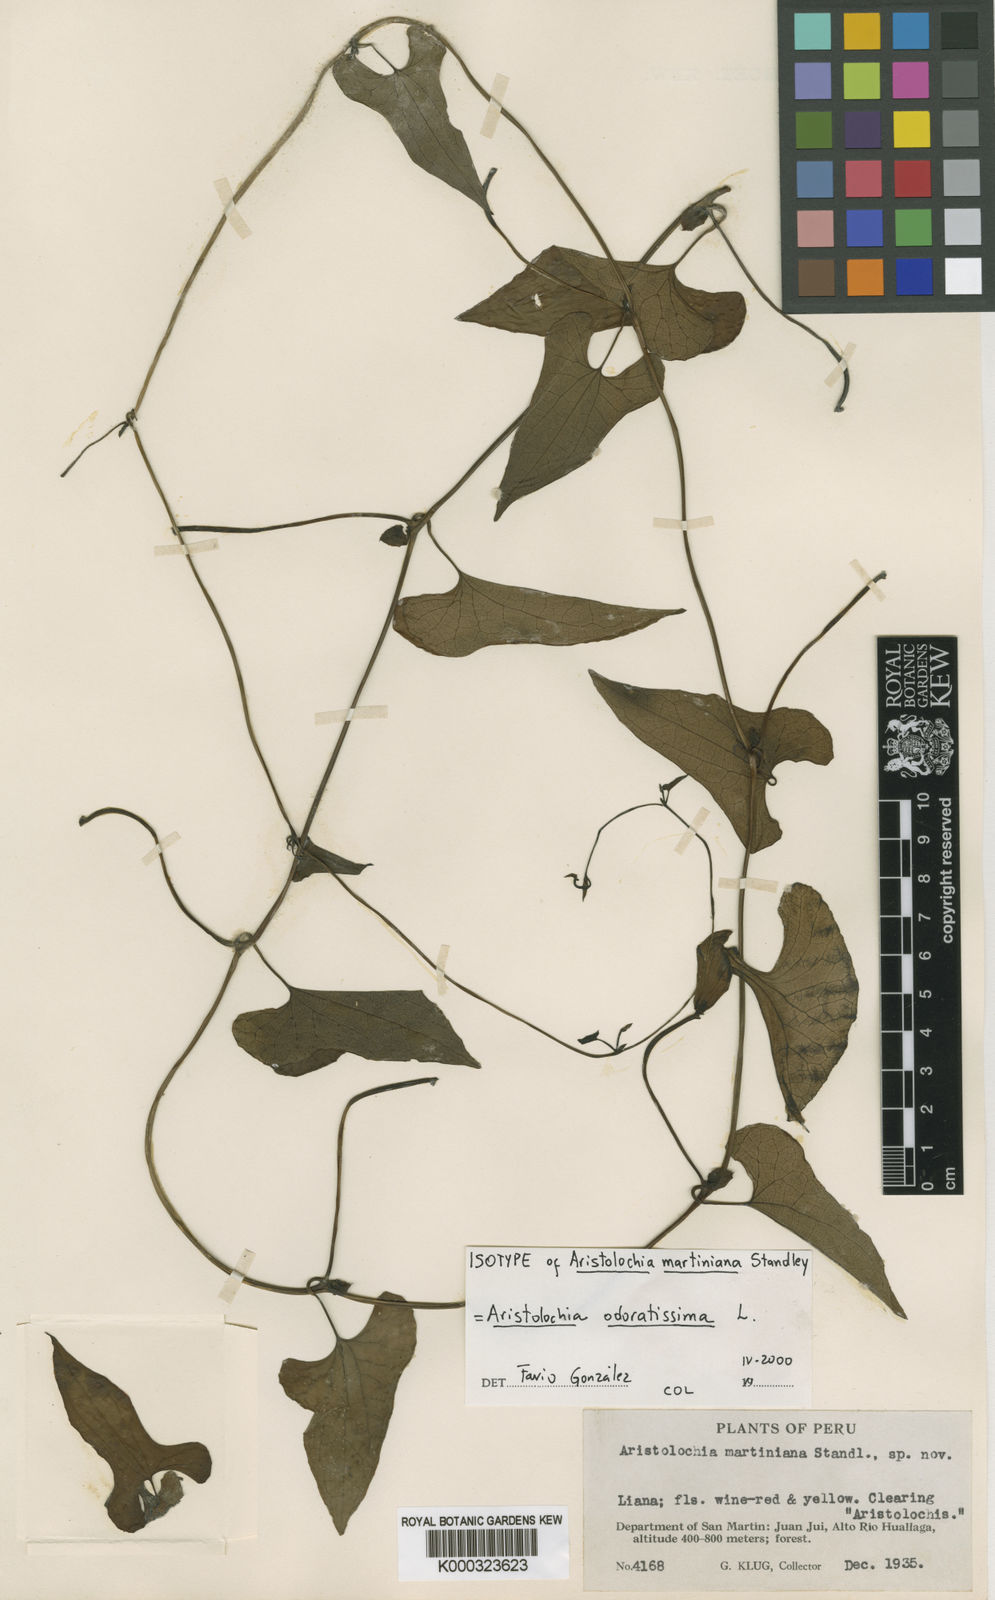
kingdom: Plantae
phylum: Tracheophyta
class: Magnoliopsida
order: Piperales
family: Aristolochiaceae
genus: Aristolochia
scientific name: Aristolochia odoratissima
